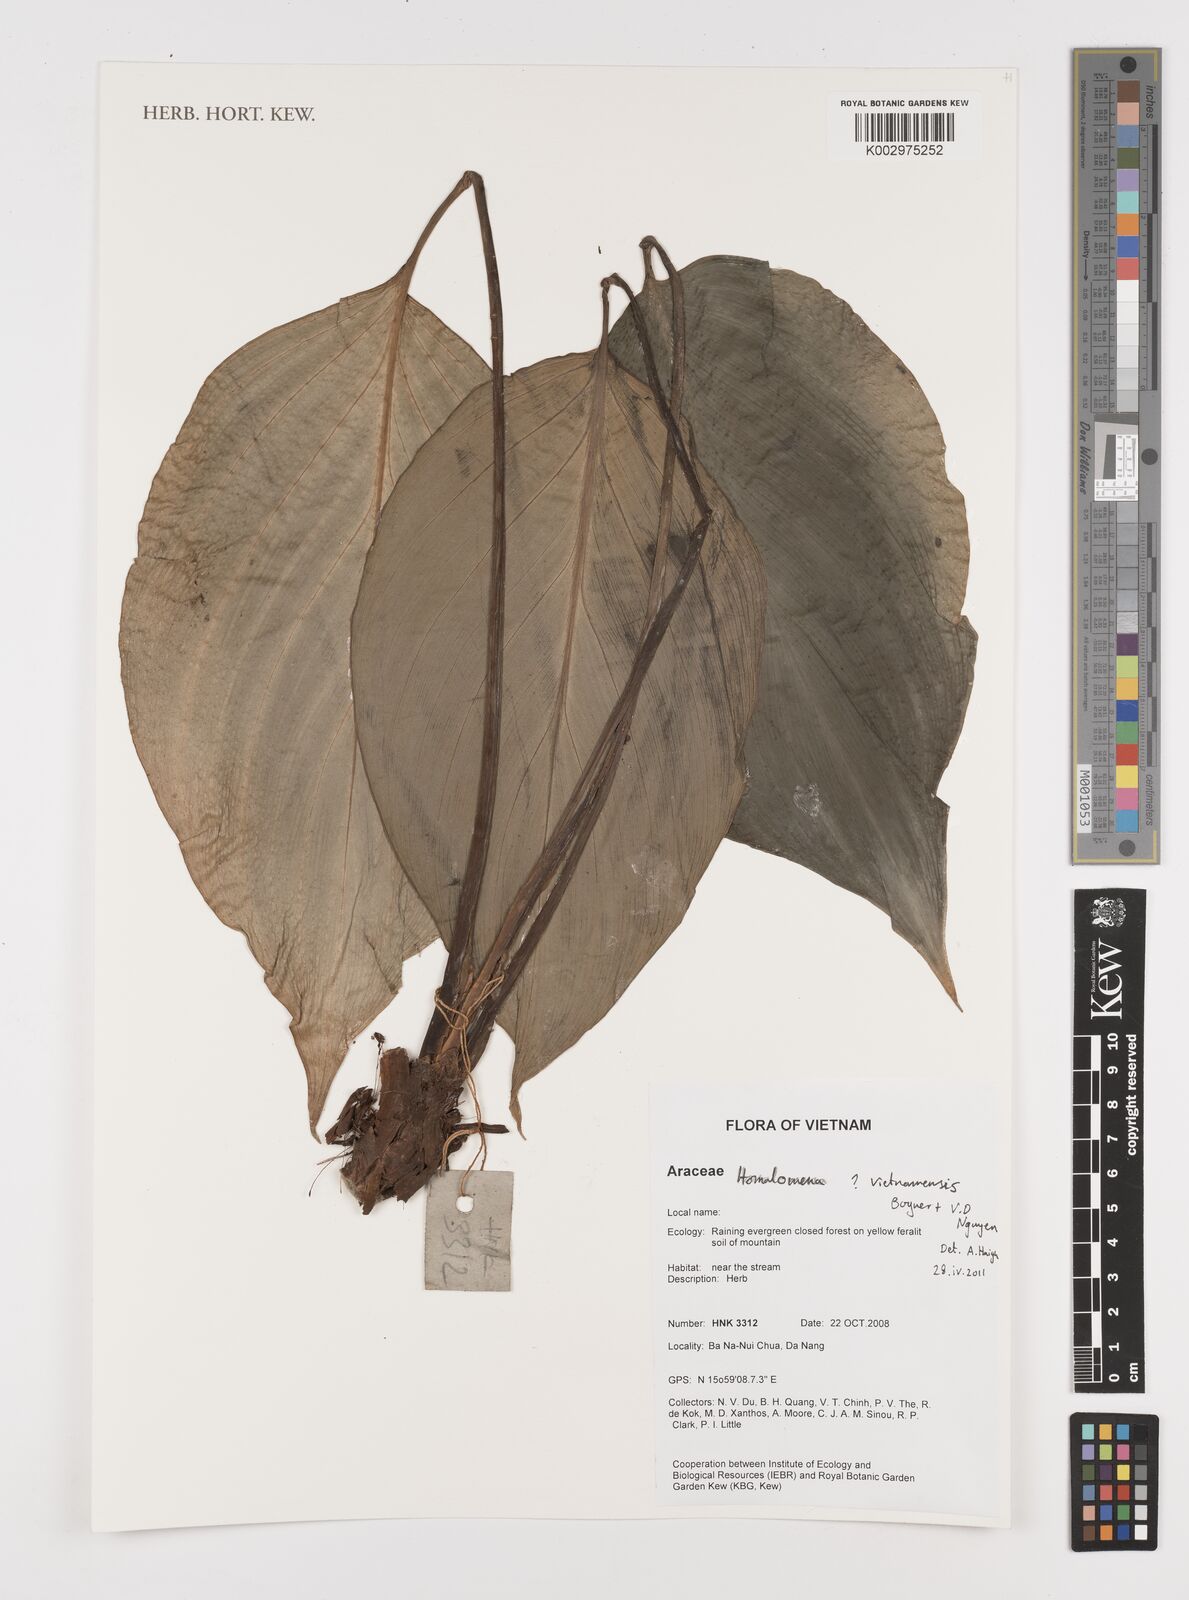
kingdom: Plantae
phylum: Tracheophyta
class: Liliopsida
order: Alismatales
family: Araceae
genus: Homalomena
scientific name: Homalomena vietnamensis
